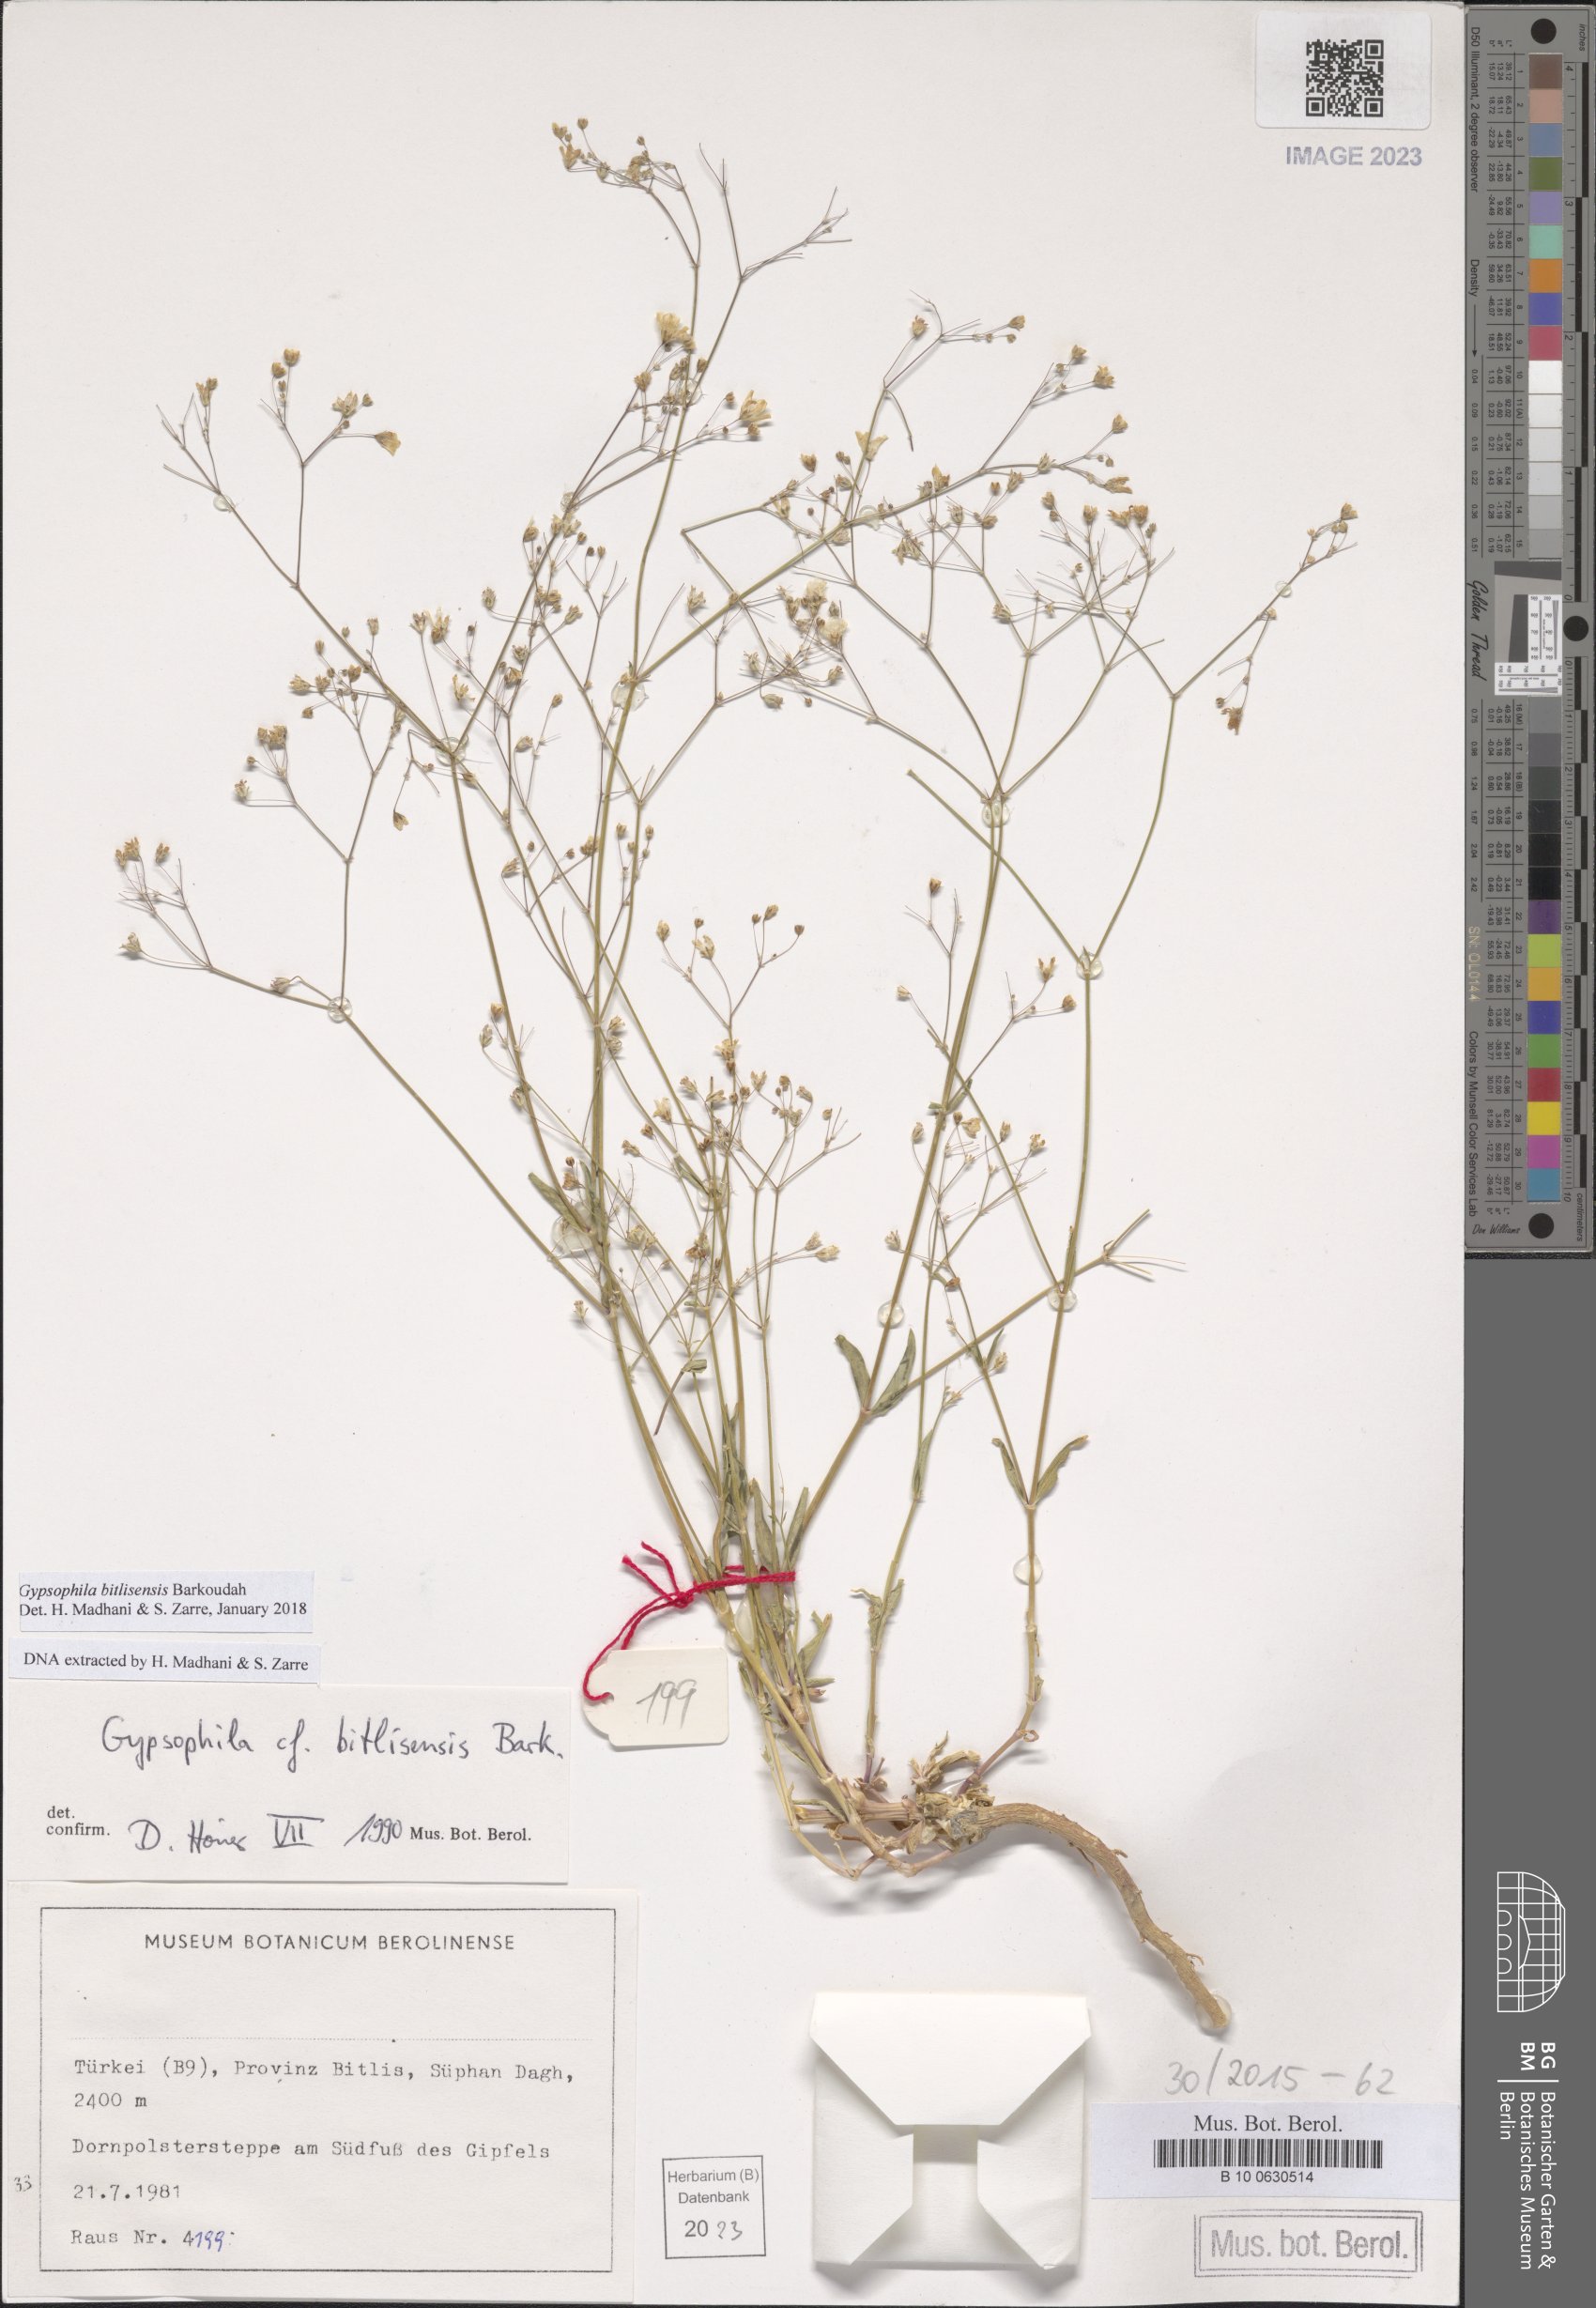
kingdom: Plantae
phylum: Tracheophyta
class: Magnoliopsida
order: Caryophyllales
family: Caryophyllaceae
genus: Gypsophila
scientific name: Gypsophila bitlisensis
